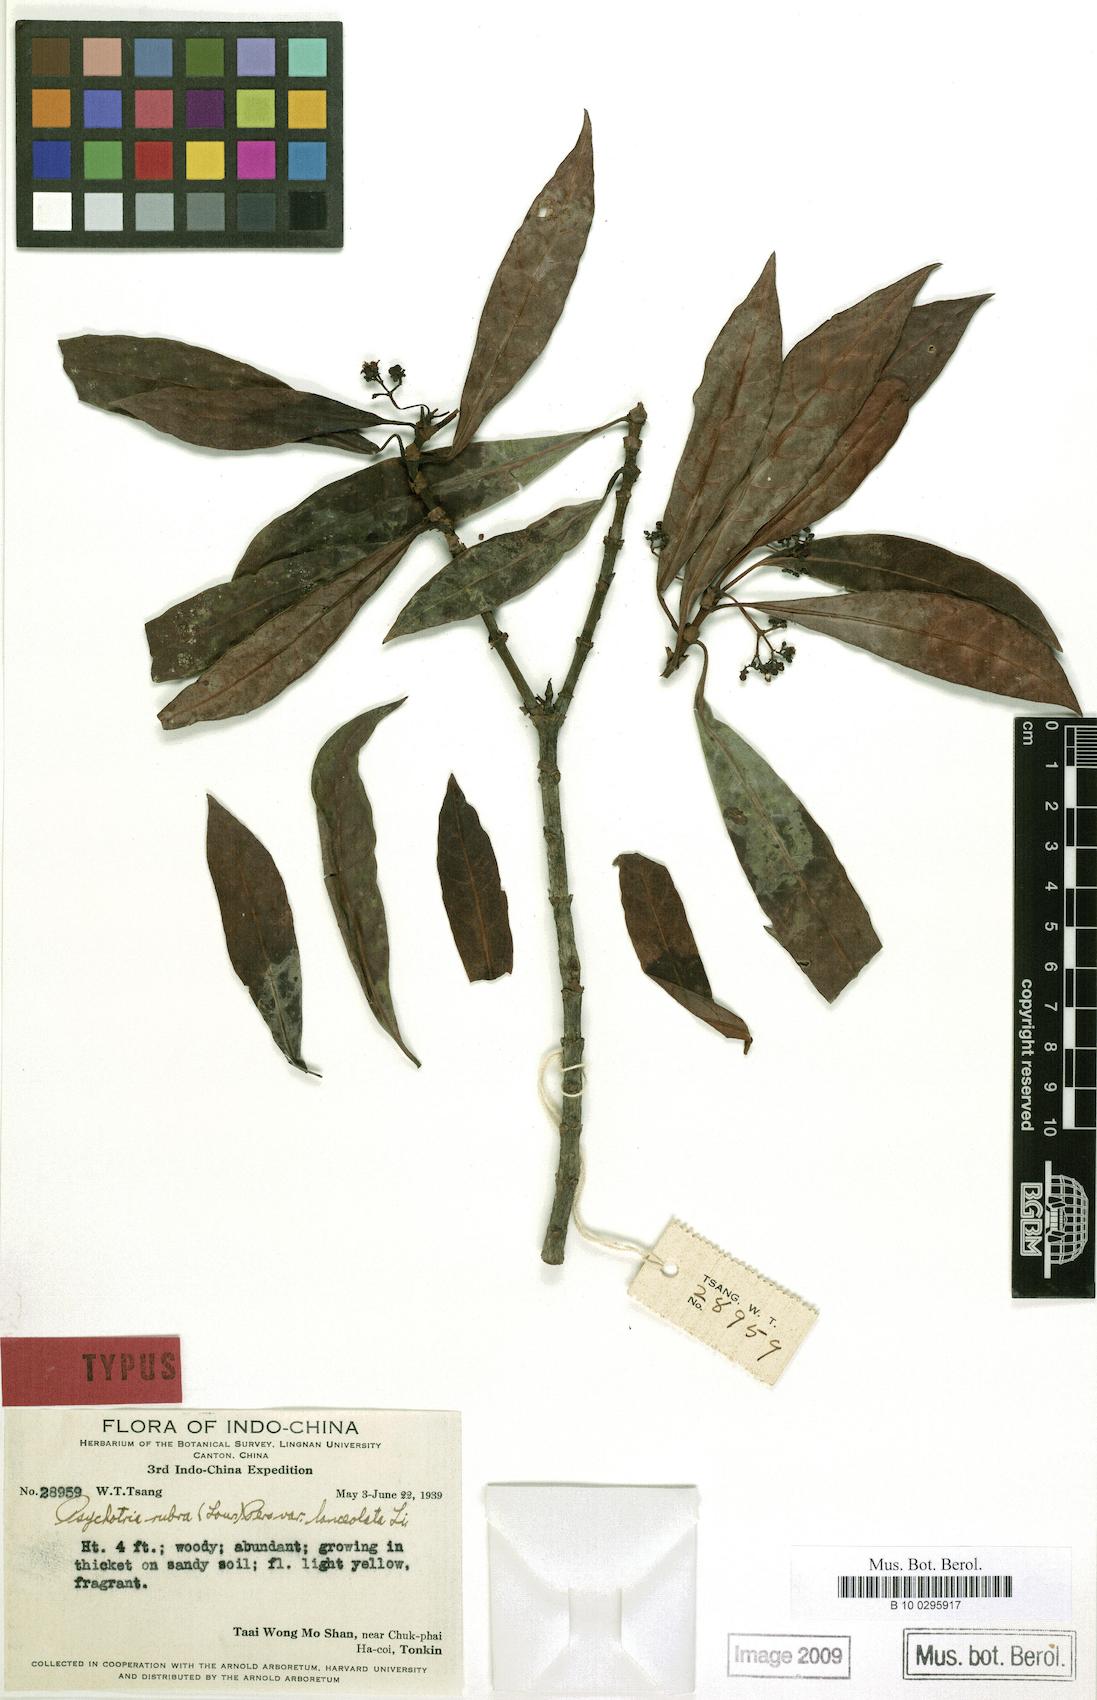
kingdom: Plantae
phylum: Tracheophyta
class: Magnoliopsida
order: Gentianales
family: Rubiaceae
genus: Palicourea
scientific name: Palicourea hoffmannseggiana
